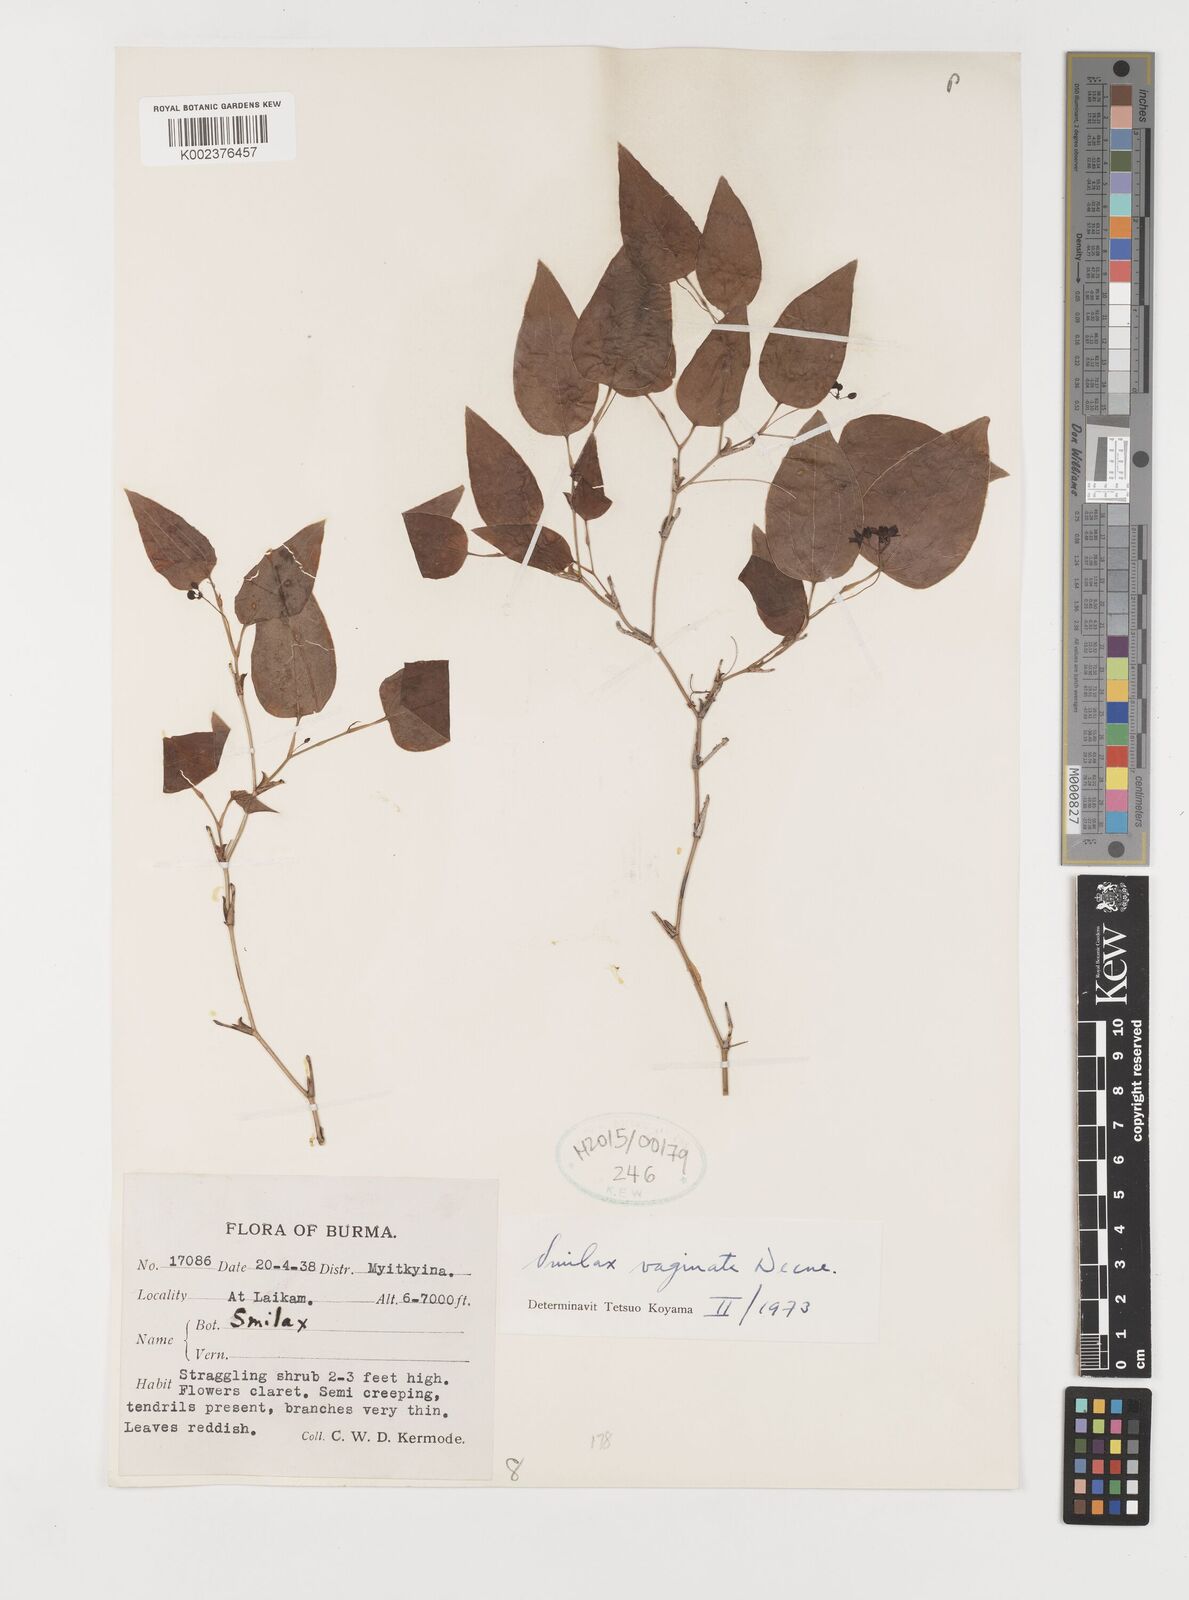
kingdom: Plantae
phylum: Tracheophyta
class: Liliopsida
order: Liliales
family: Smilacaceae
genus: Smilax
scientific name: Smilax vaginata
